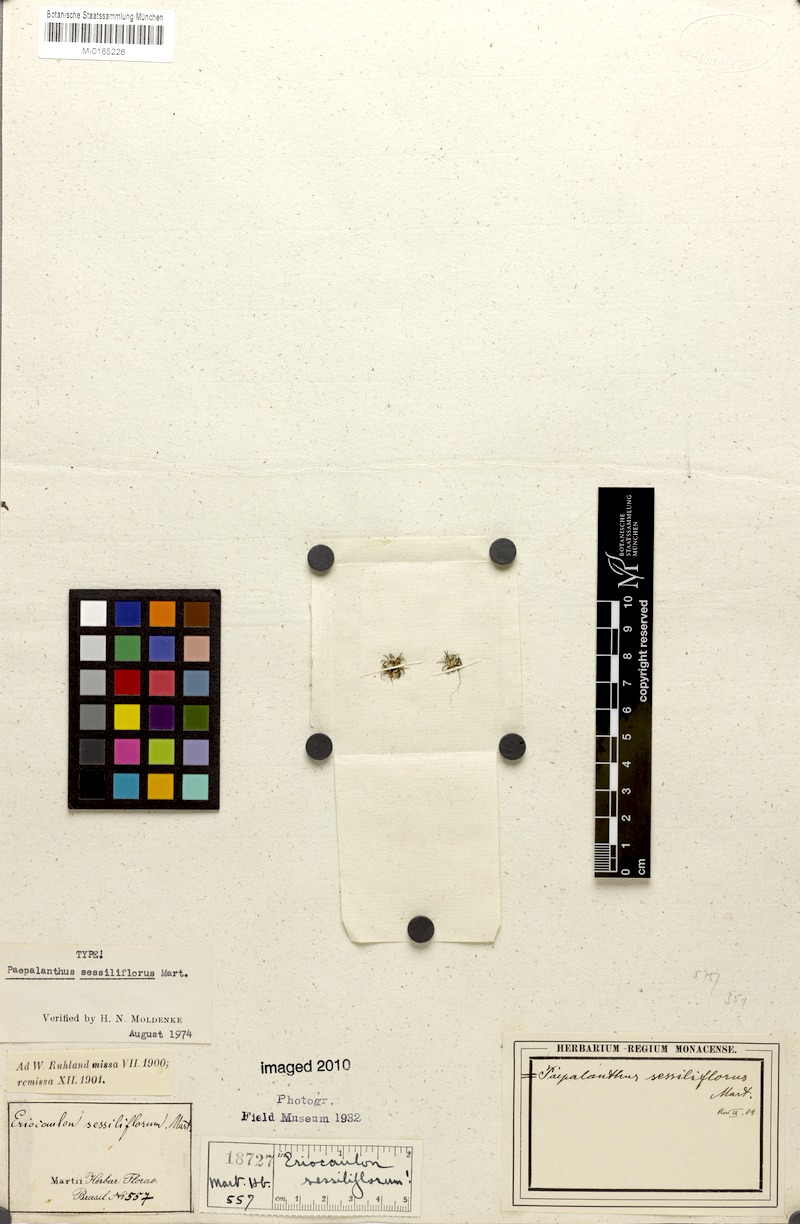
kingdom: Plantae
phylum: Tracheophyta
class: Liliopsida
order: Poales
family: Eriocaulaceae
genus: Paepalanthus
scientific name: Paepalanthus sessiliflorus
